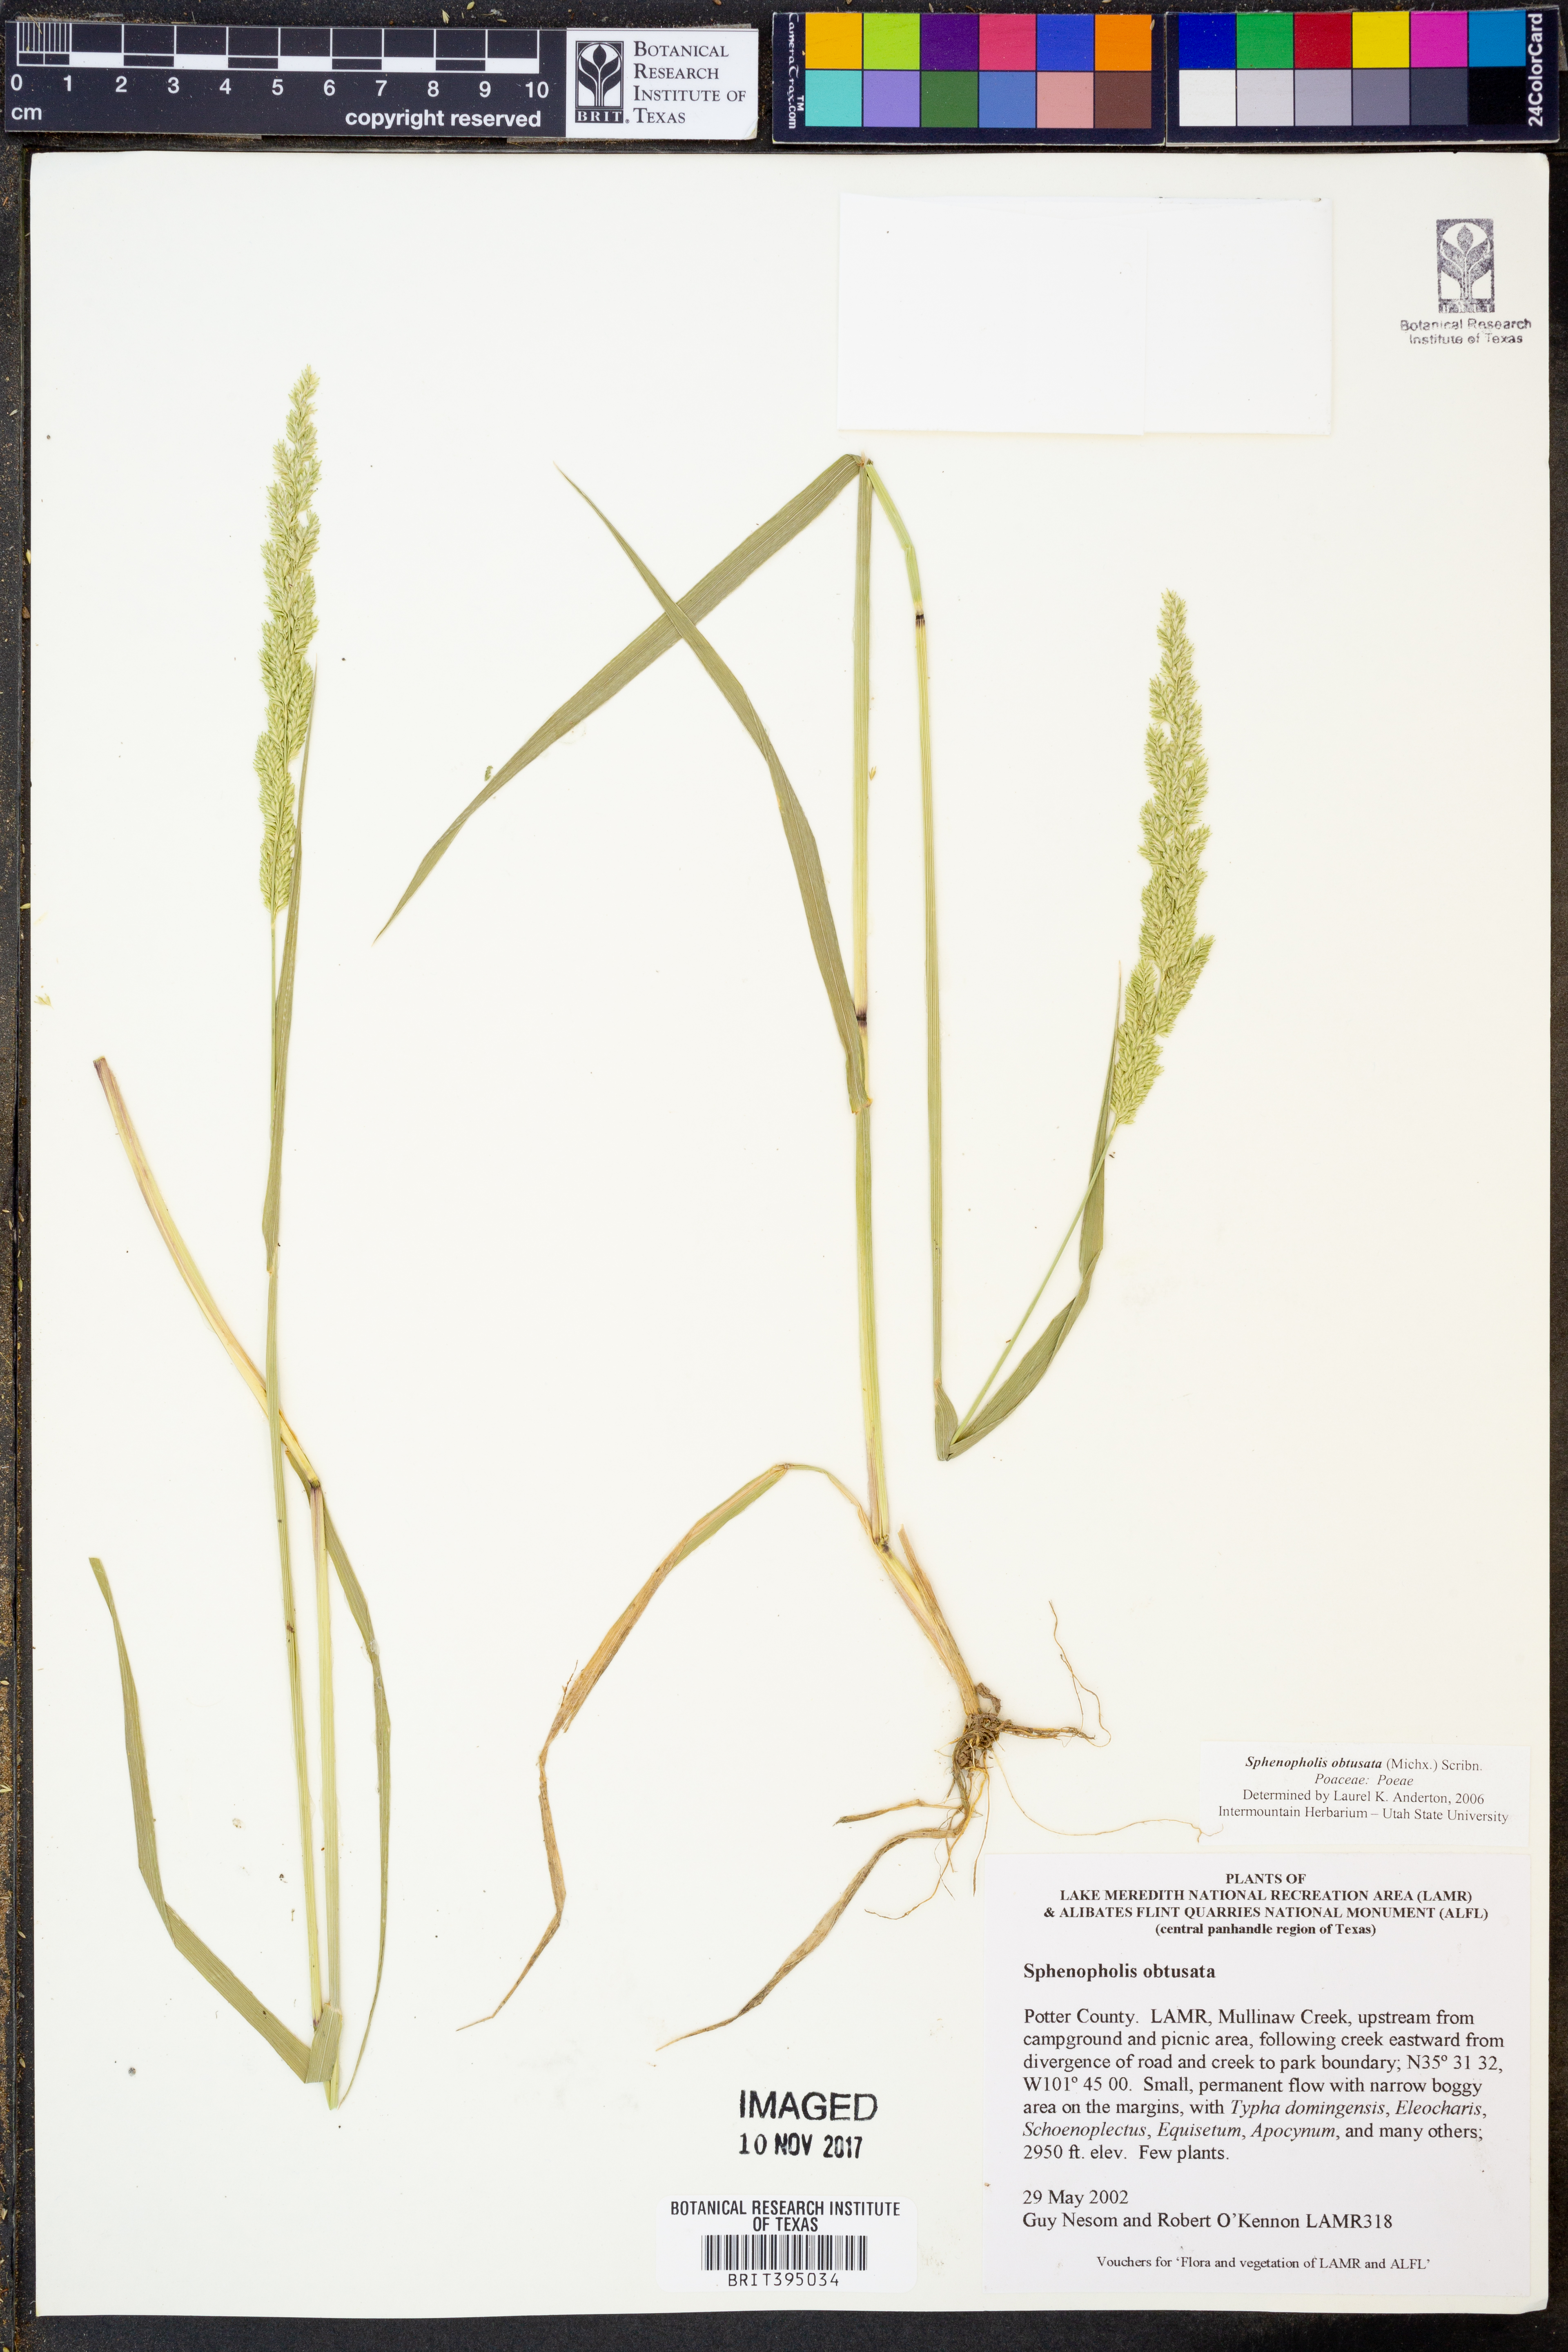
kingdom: Plantae
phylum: Tracheophyta
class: Liliopsida
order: Poales
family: Poaceae
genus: Sphenopholis
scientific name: Sphenopholis obtusata
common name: Prairie grass
